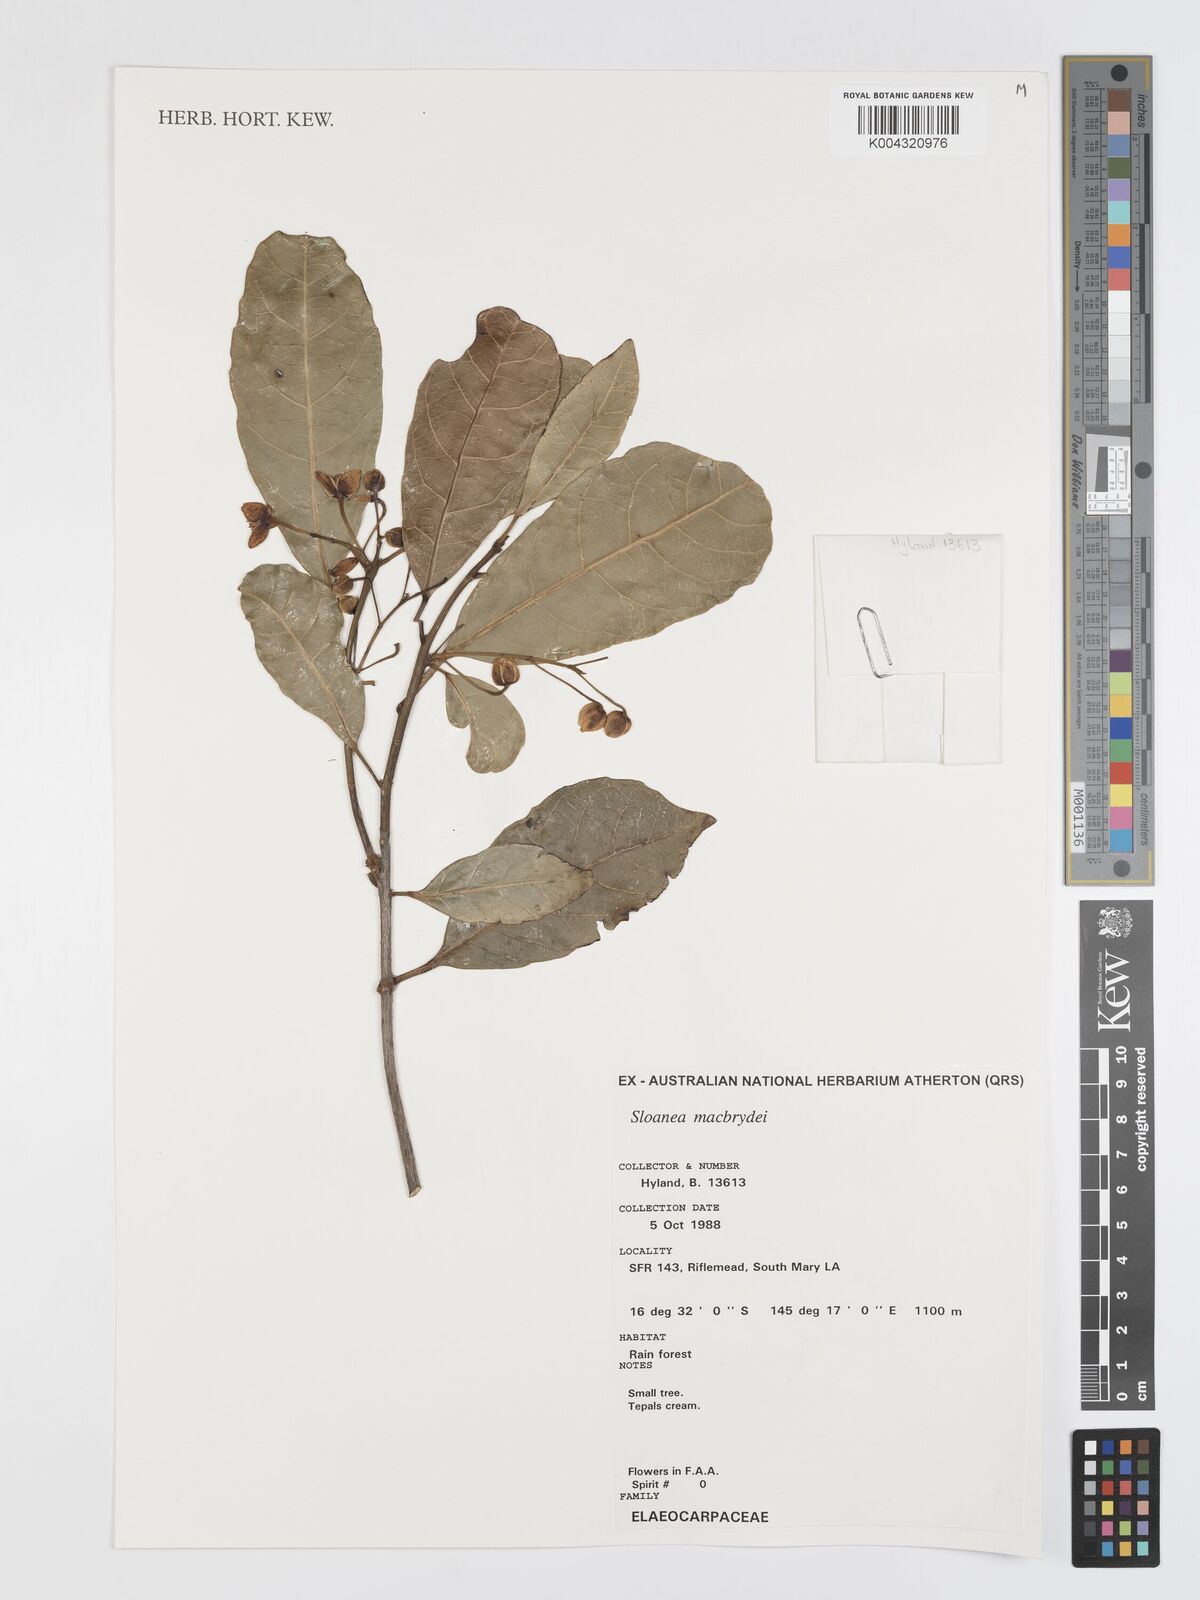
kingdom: Plantae
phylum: Tracheophyta
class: Magnoliopsida
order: Oxalidales
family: Elaeocarpaceae
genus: Sloanea
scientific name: Sloanea macbrydei
